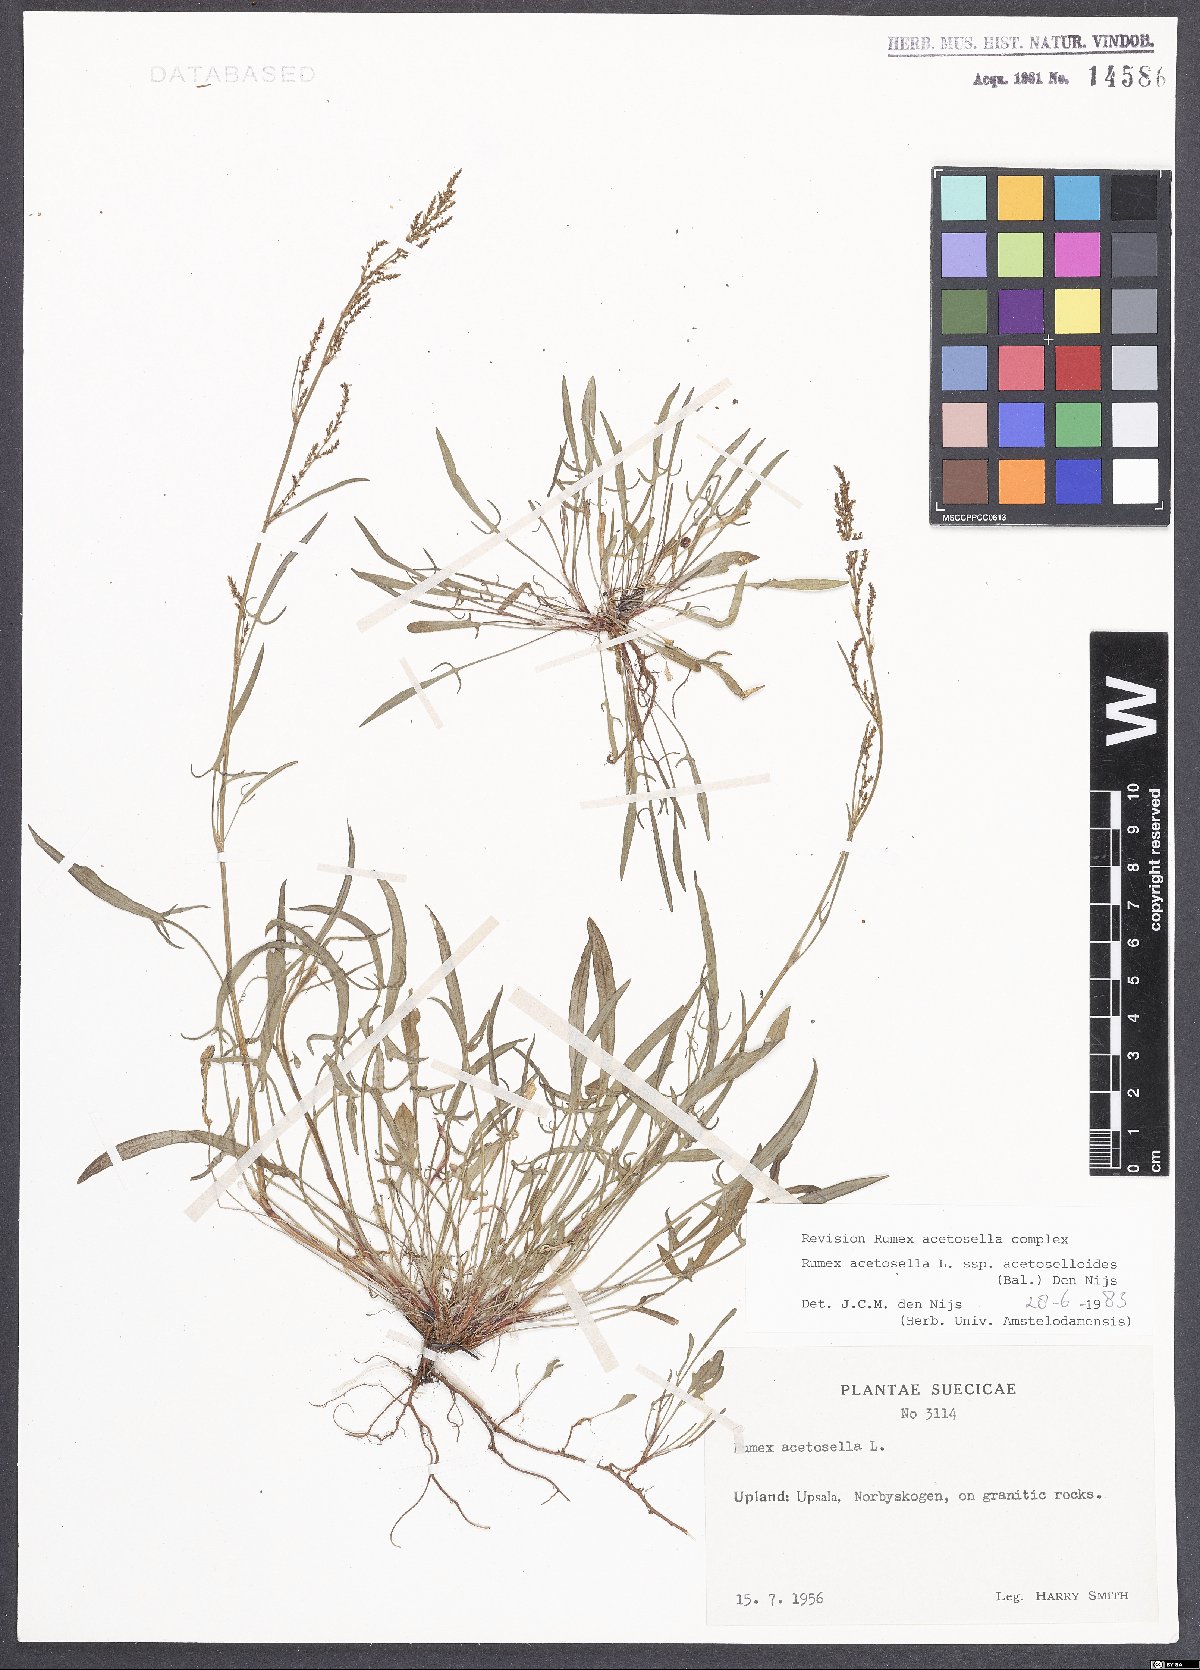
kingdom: Plantae
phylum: Tracheophyta
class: Magnoliopsida
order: Caryophyllales
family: Polygonaceae
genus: Rumex
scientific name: Rumex acetosella
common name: Common sheep sorrel
